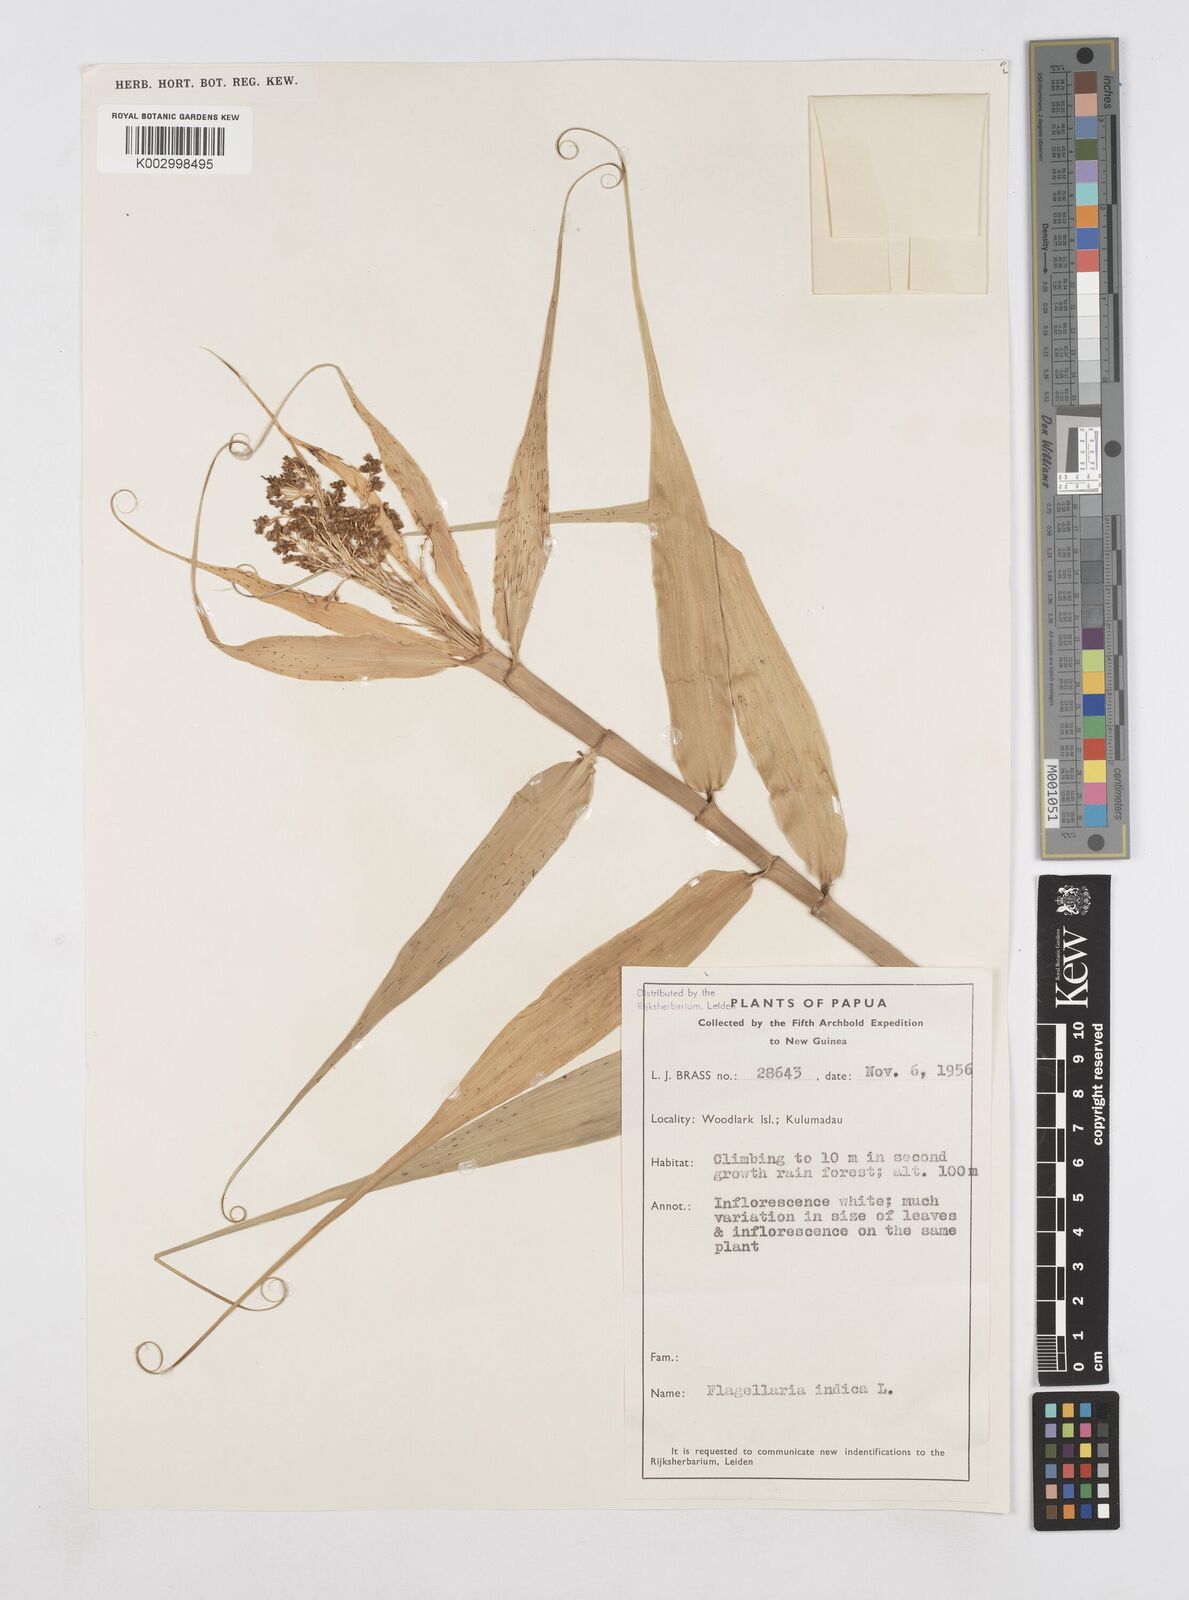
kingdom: Plantae
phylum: Tracheophyta
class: Liliopsida
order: Poales
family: Flagellariaceae
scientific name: Flagellariaceae
